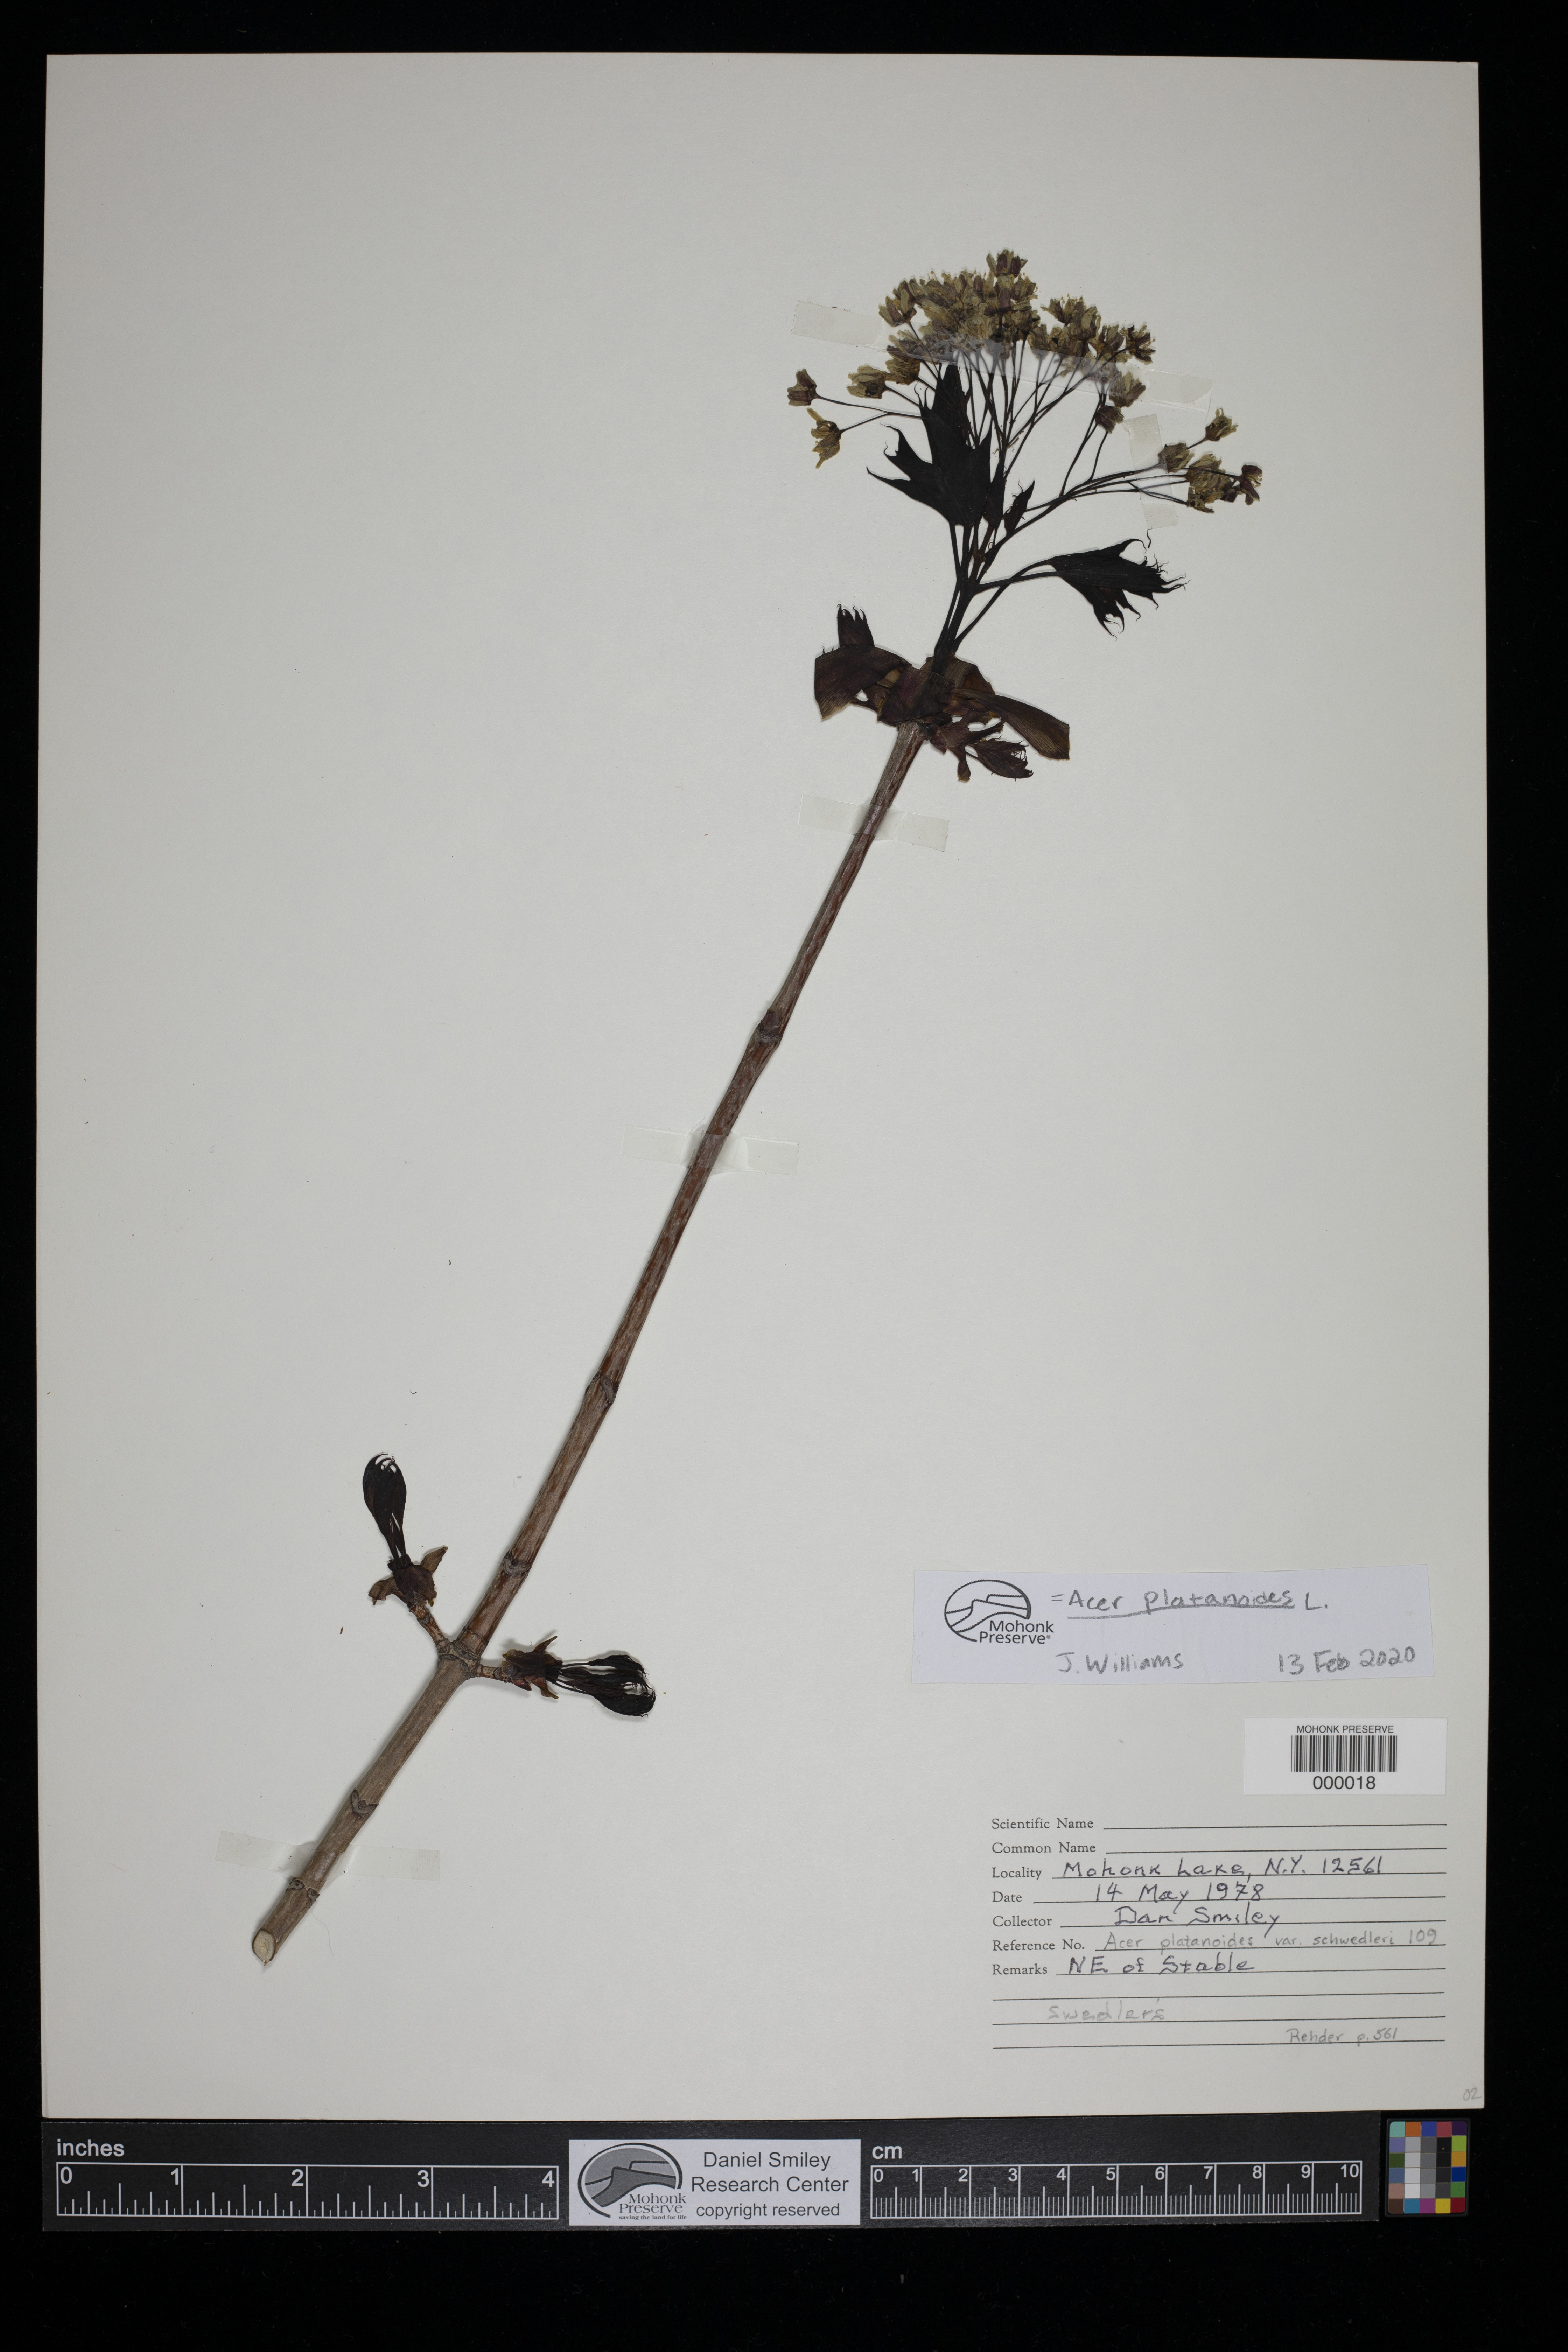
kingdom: Plantae
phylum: Tracheophyta
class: Magnoliopsida
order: Sapindales
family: Sapindaceae
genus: Acer
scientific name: Acer platanoides
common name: Norway maple
